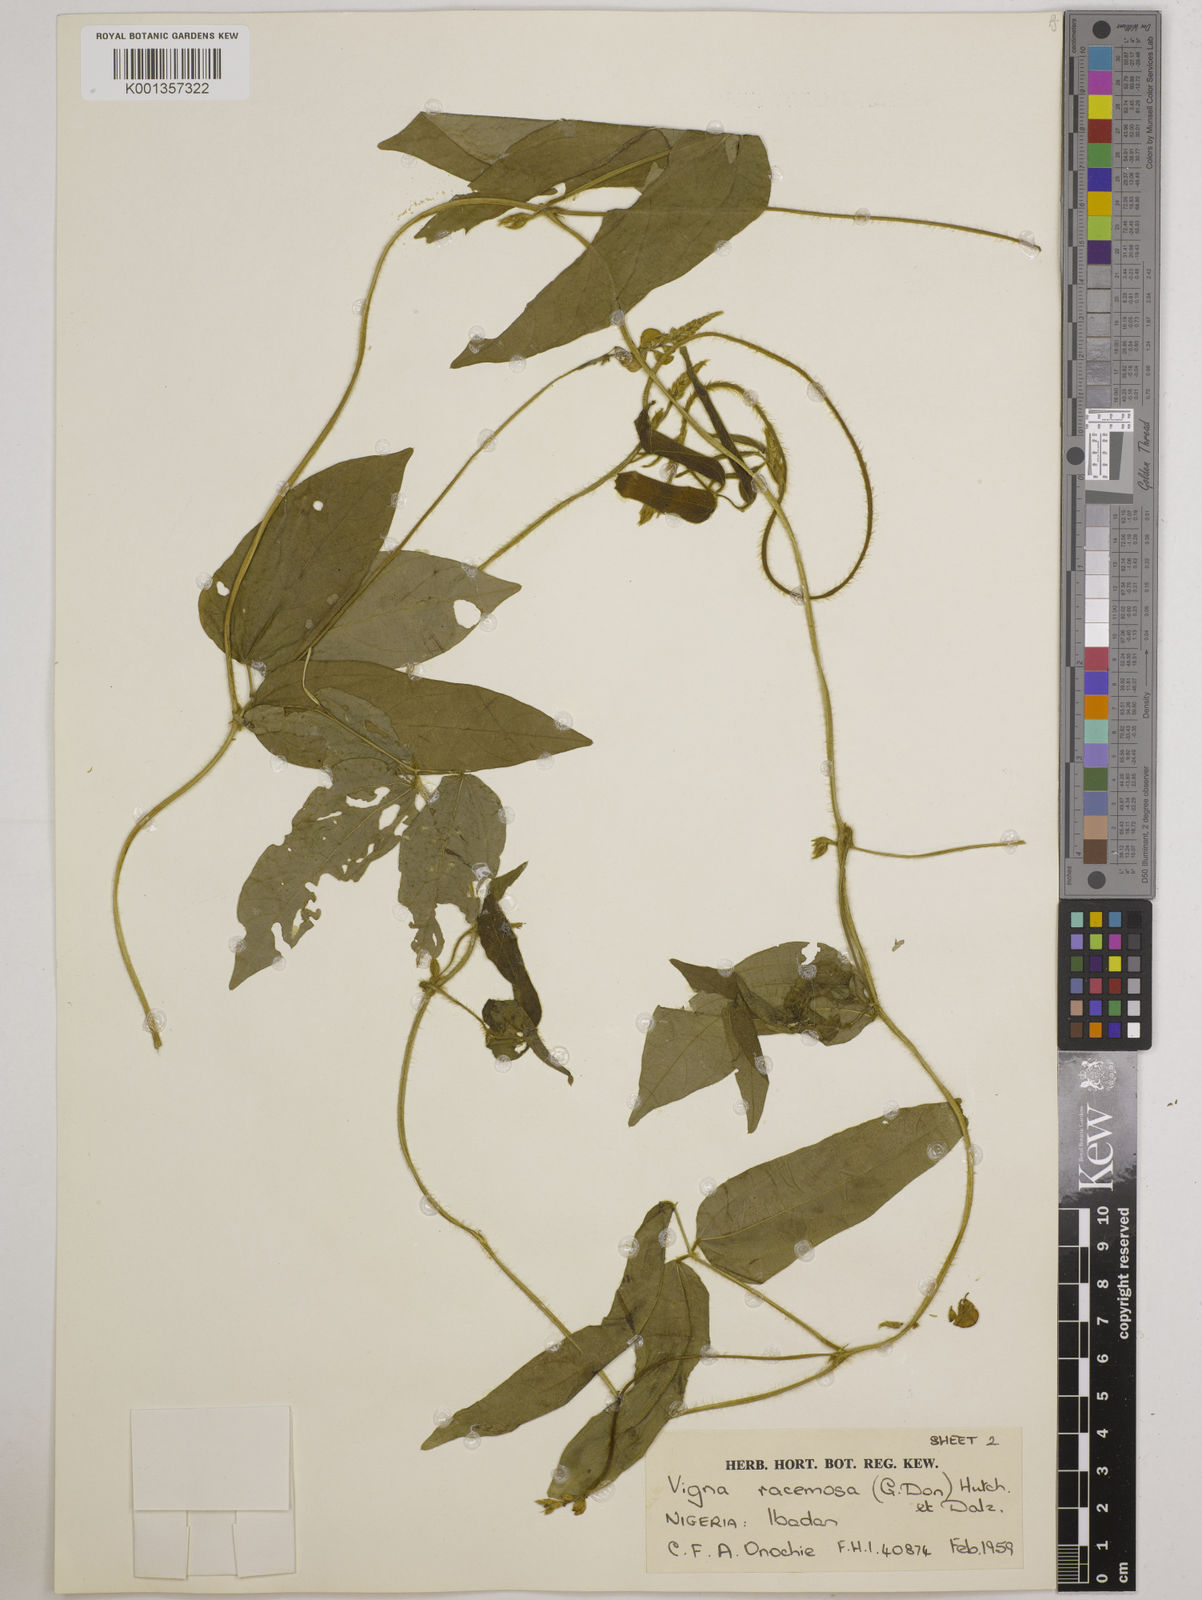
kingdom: Plantae
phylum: Tracheophyta
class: Magnoliopsida
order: Fabales
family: Fabaceae
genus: Vigna
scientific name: Vigna racemosa
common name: Beans not eaten
